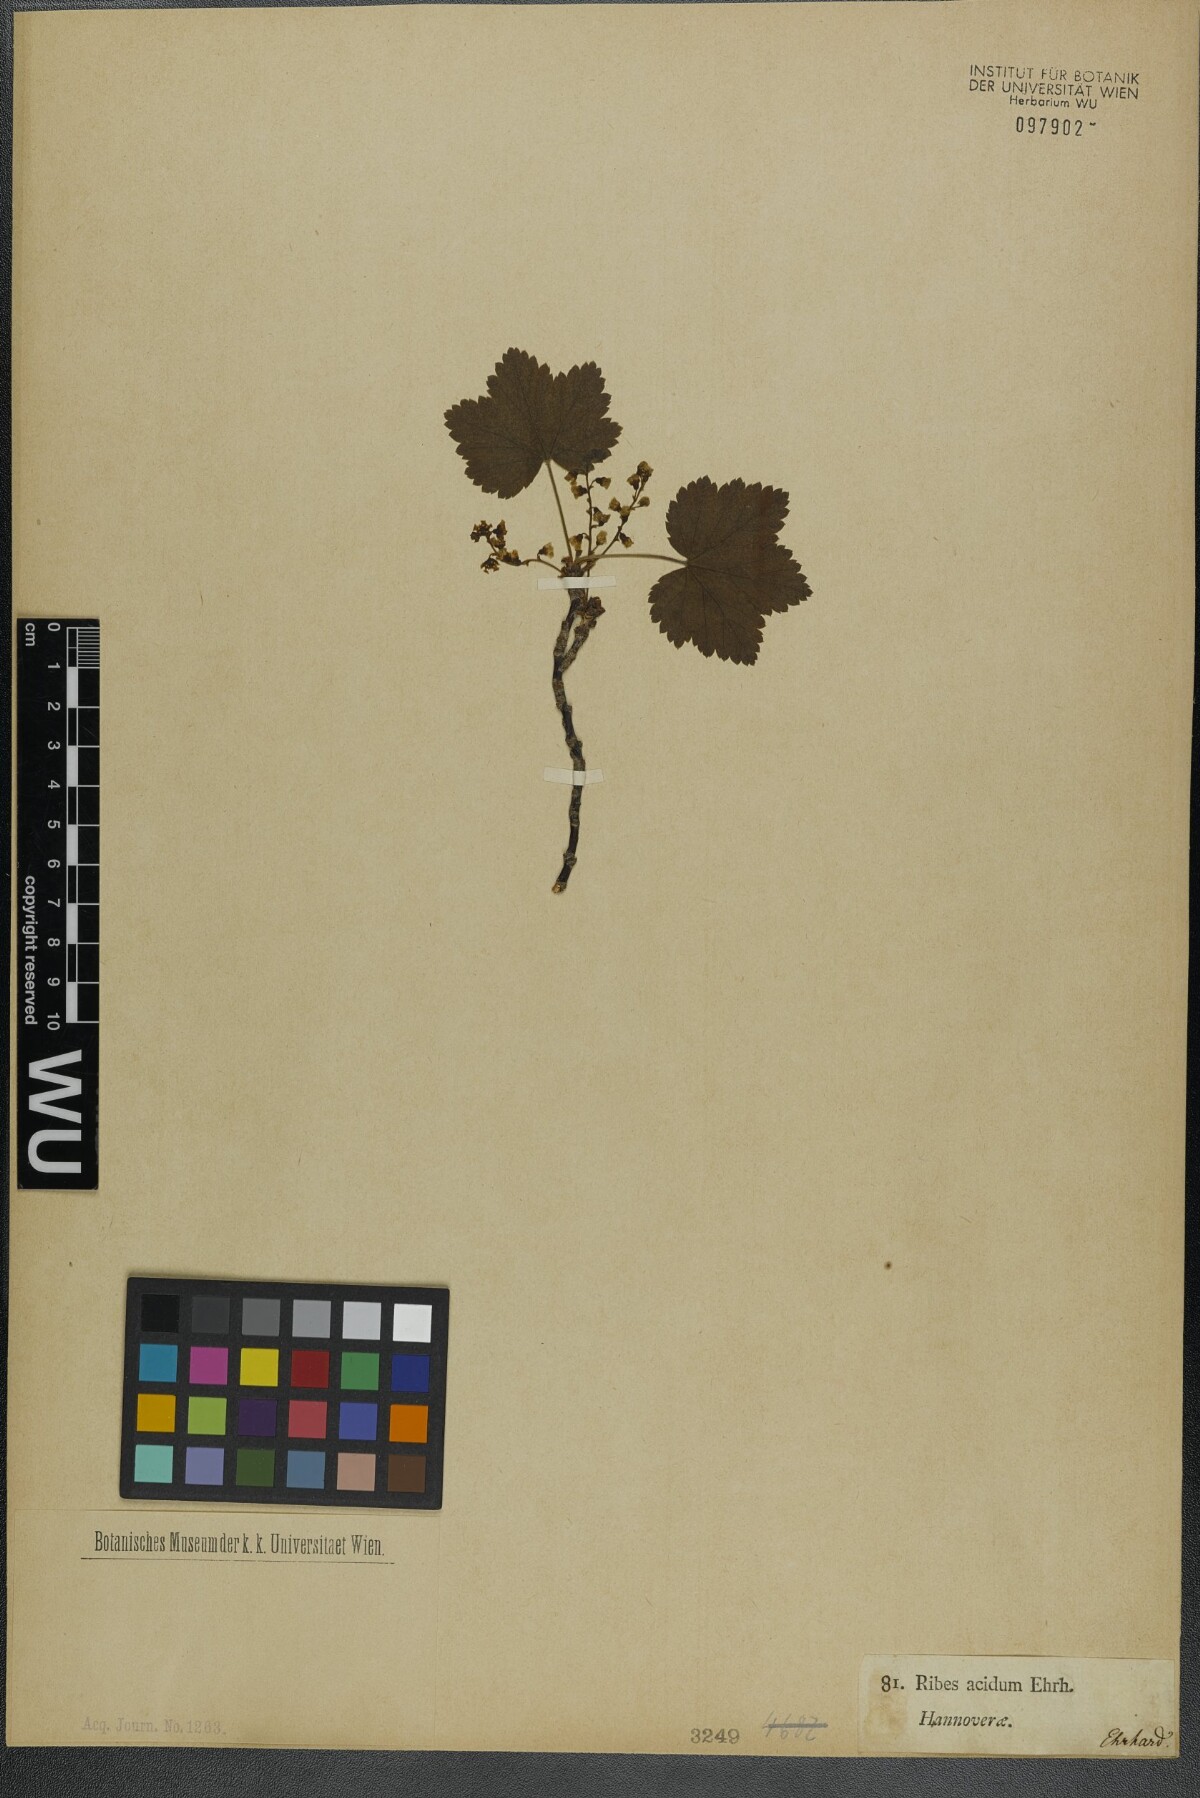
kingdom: Plantae
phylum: Tracheophyta
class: Magnoliopsida
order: Saxifragales
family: Grossulariaceae
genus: Ribes
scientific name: Ribes rubrum
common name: Red currant
